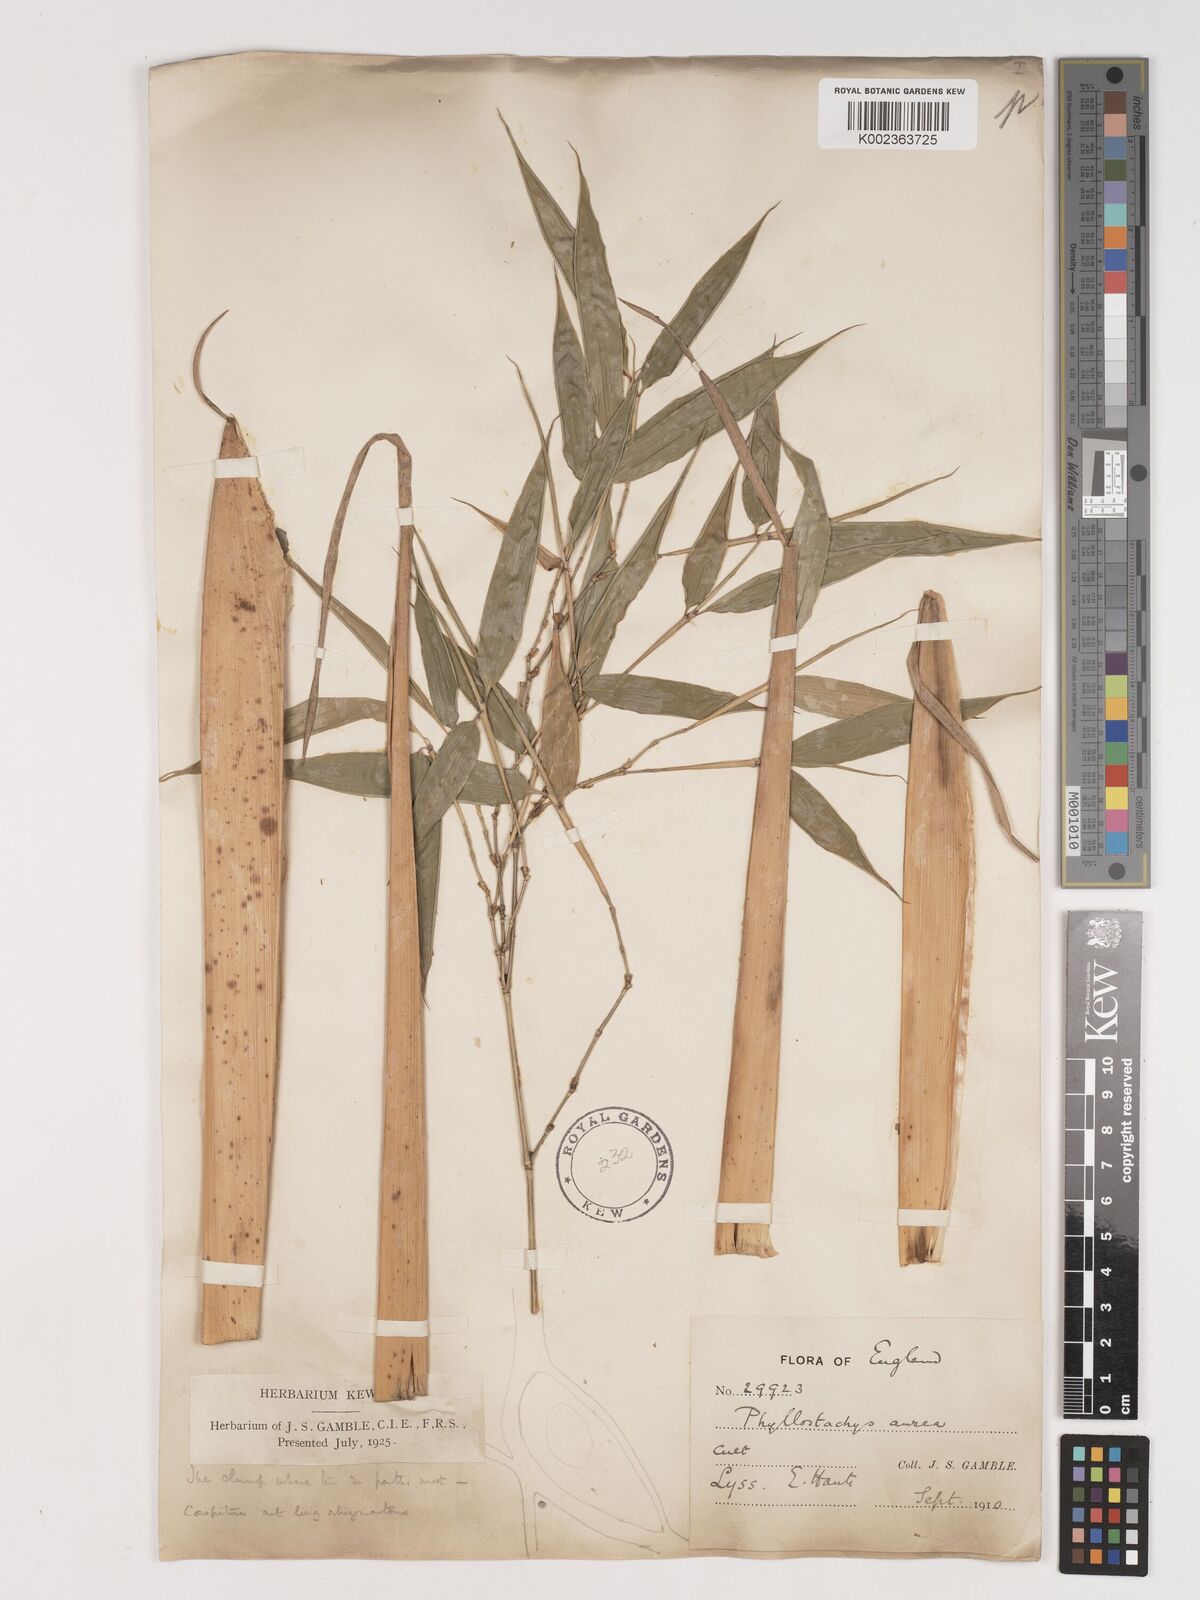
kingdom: Plantae
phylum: Tracheophyta
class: Liliopsida
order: Poales
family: Poaceae
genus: Phyllostachys
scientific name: Phyllostachys aurea
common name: Golden bamboo
